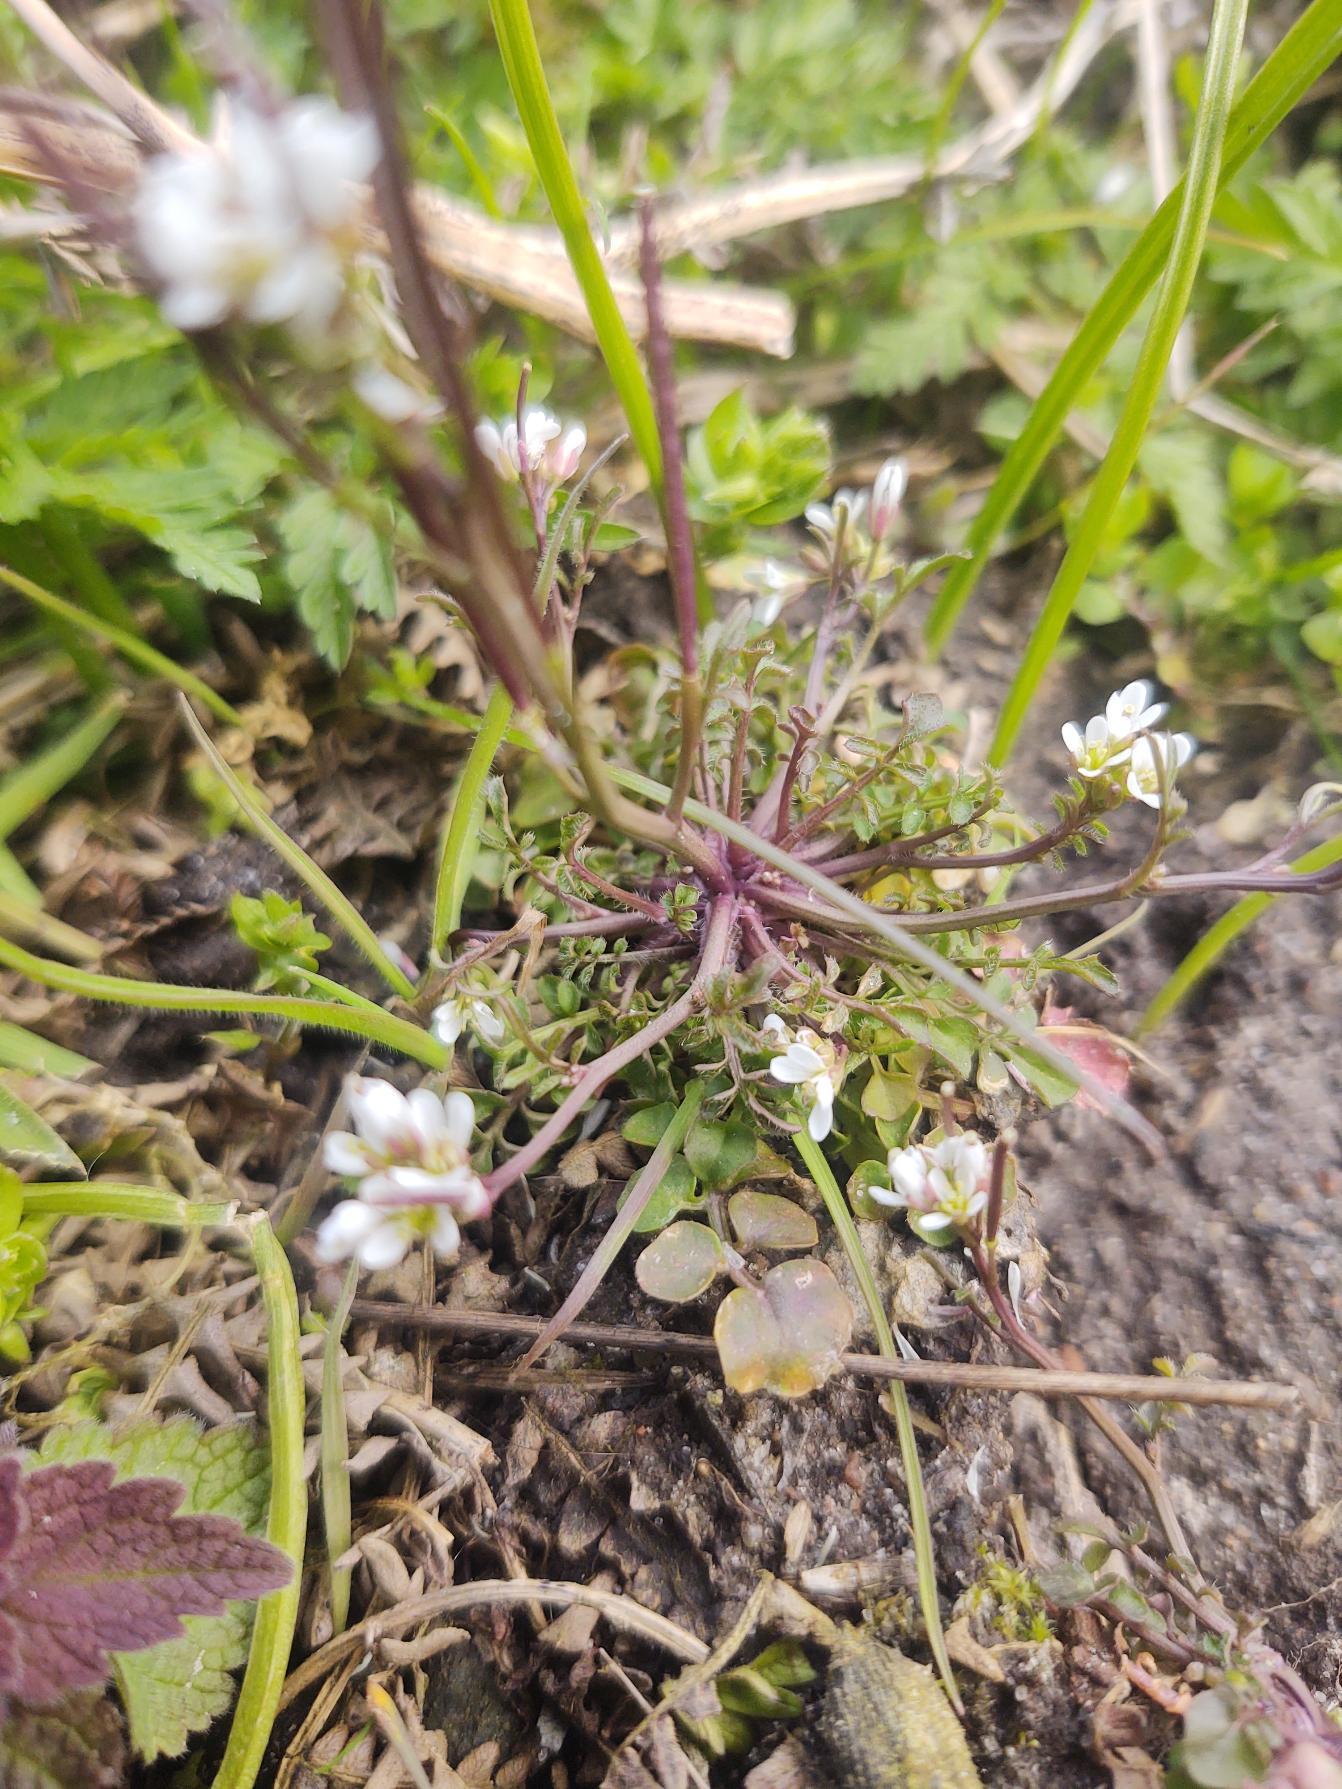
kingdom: Plantae
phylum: Tracheophyta
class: Magnoliopsida
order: Brassicales
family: Brassicaceae
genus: Cardamine
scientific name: Cardamine hirsuta
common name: Roset-springklap
